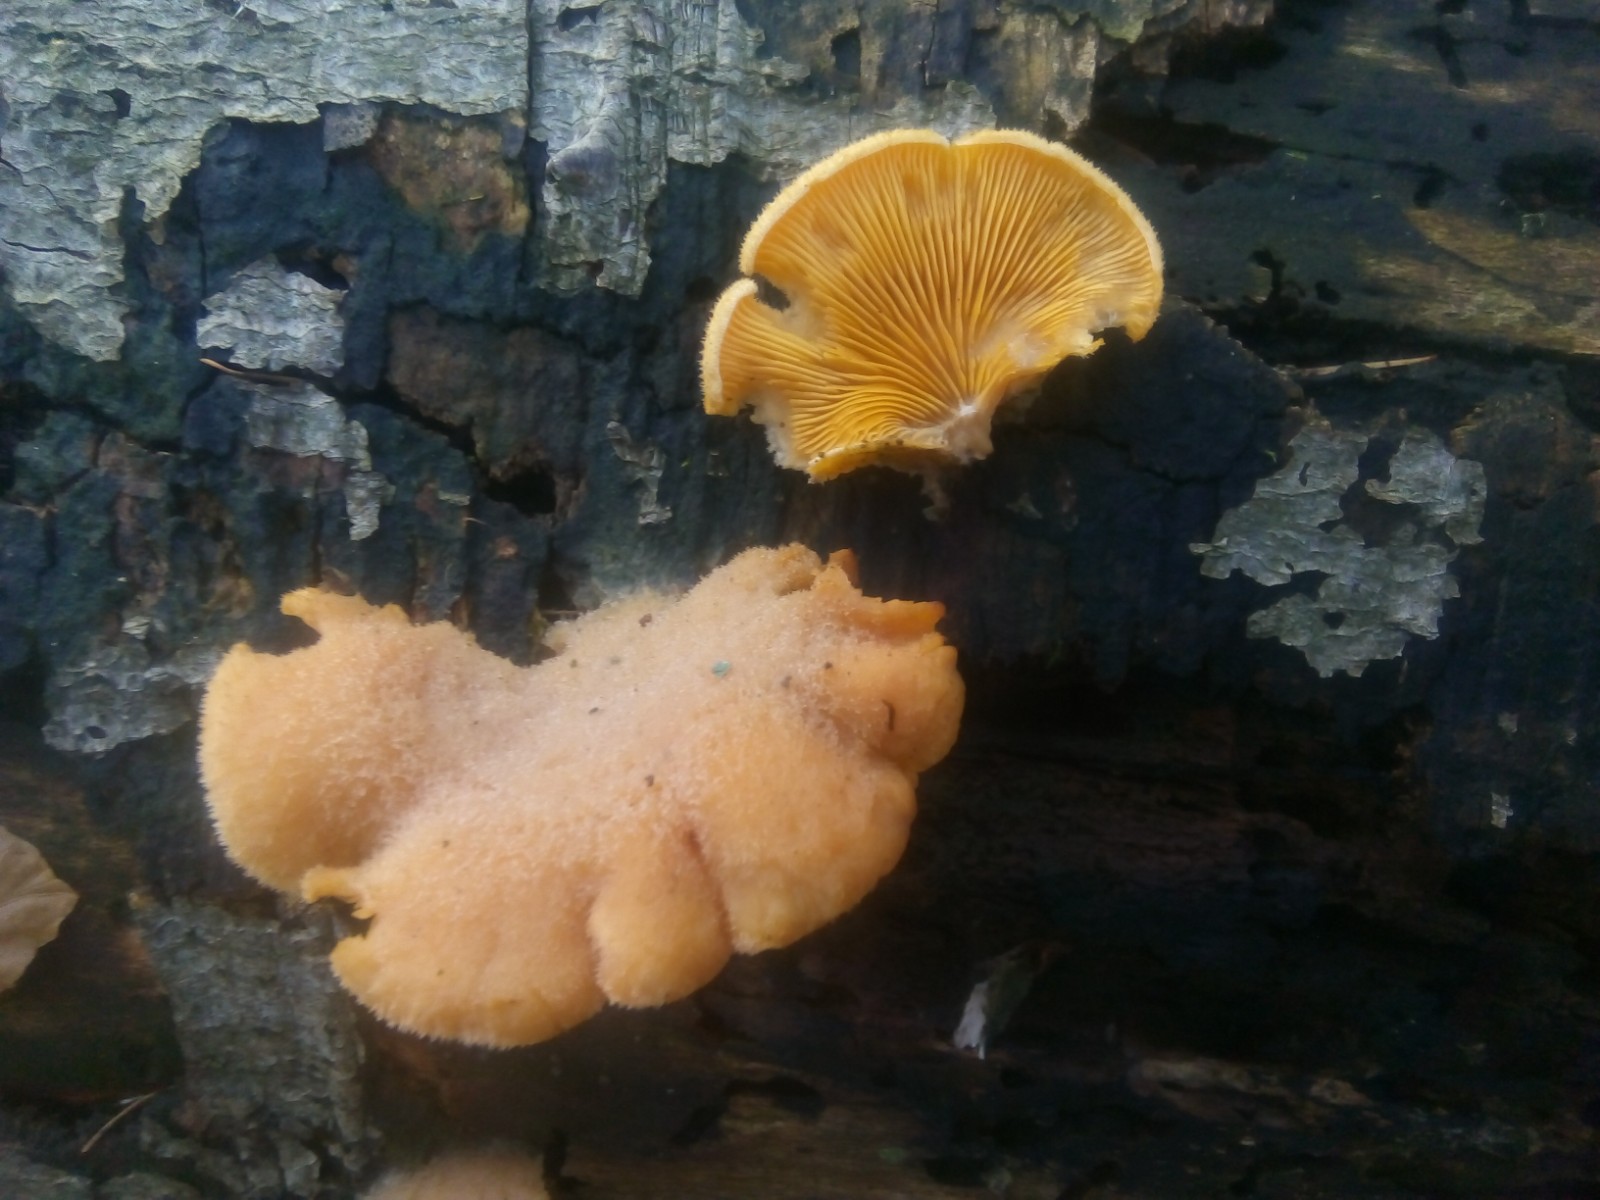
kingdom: Fungi
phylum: Basidiomycota
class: Agaricomycetes
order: Agaricales
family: Phyllotopsidaceae
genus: Phyllotopsis
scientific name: Phyllotopsis nidulans
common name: okkerblad
